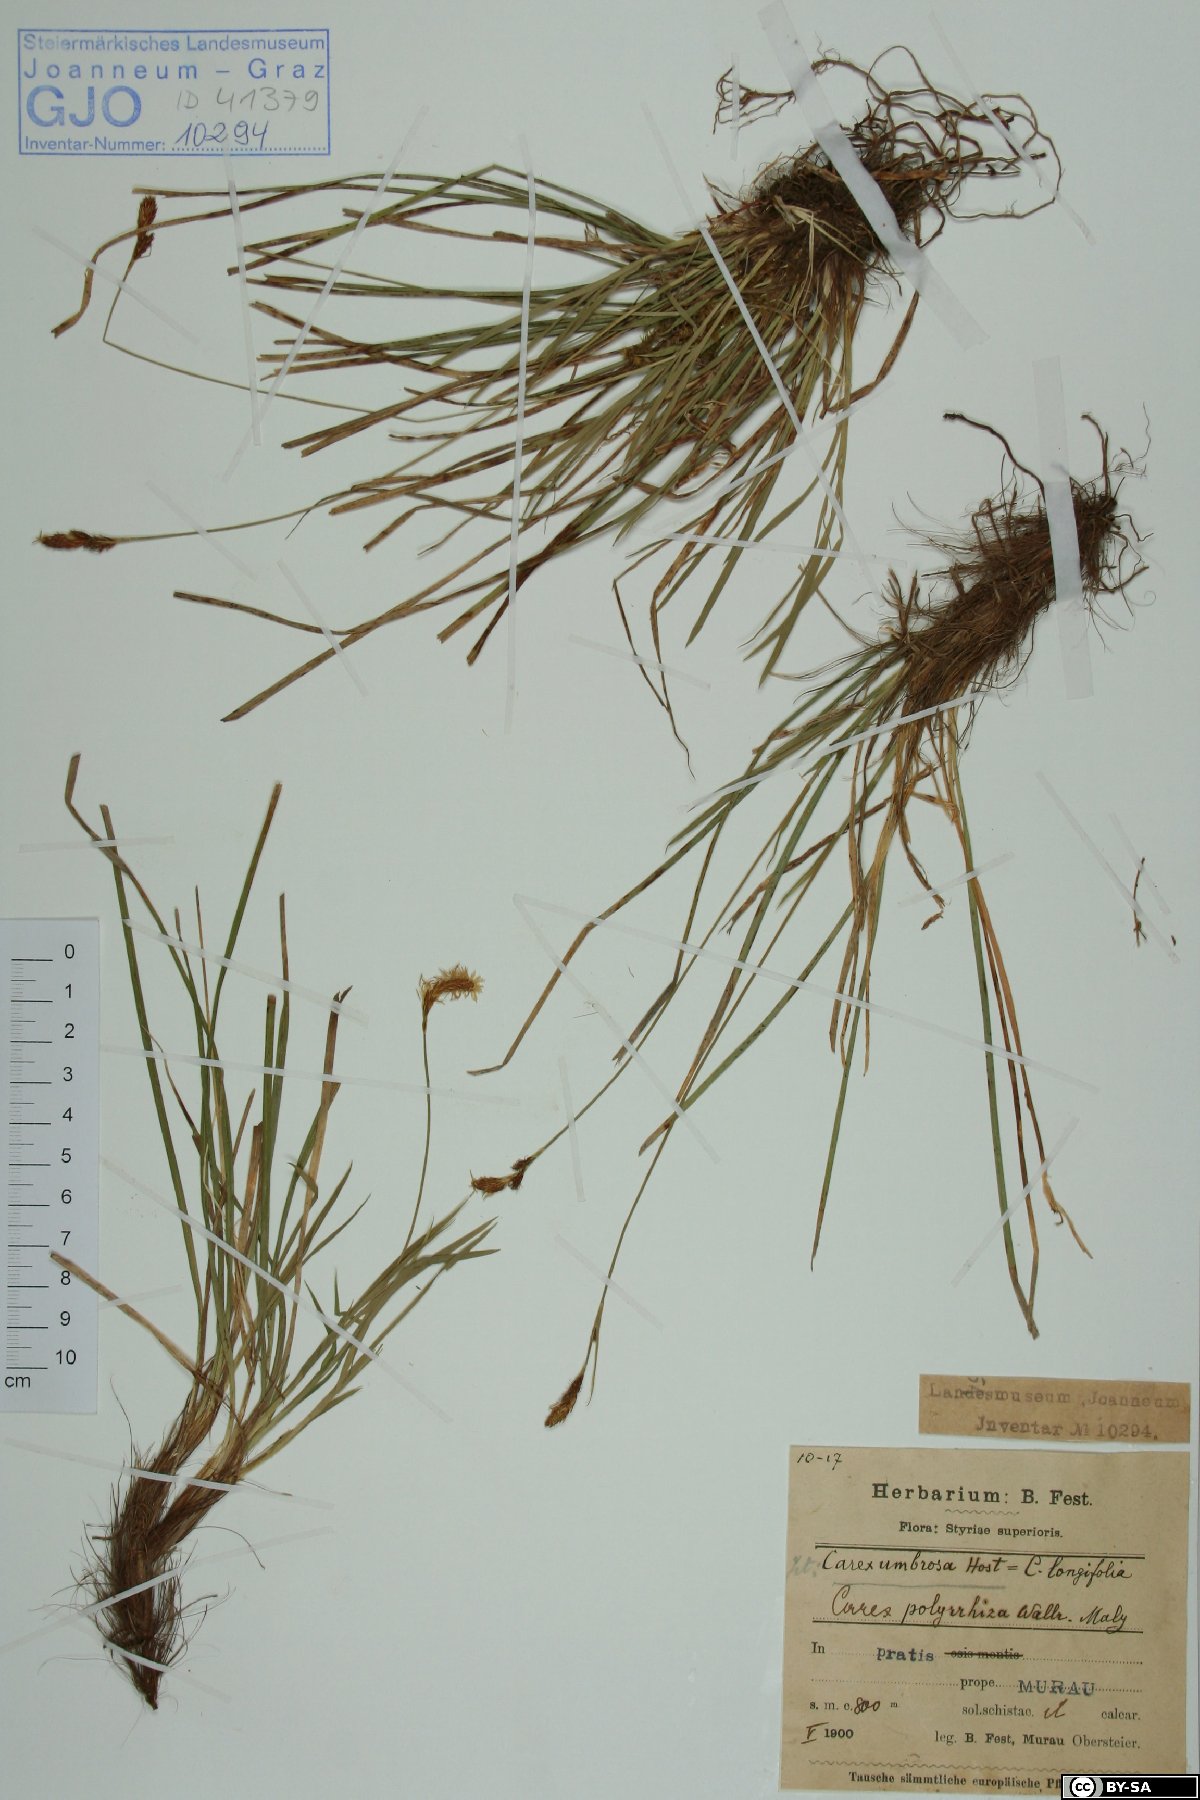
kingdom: Plantae
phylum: Tracheophyta
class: Liliopsida
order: Poales
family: Cyperaceae
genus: Carex
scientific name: Carex umbrosa
